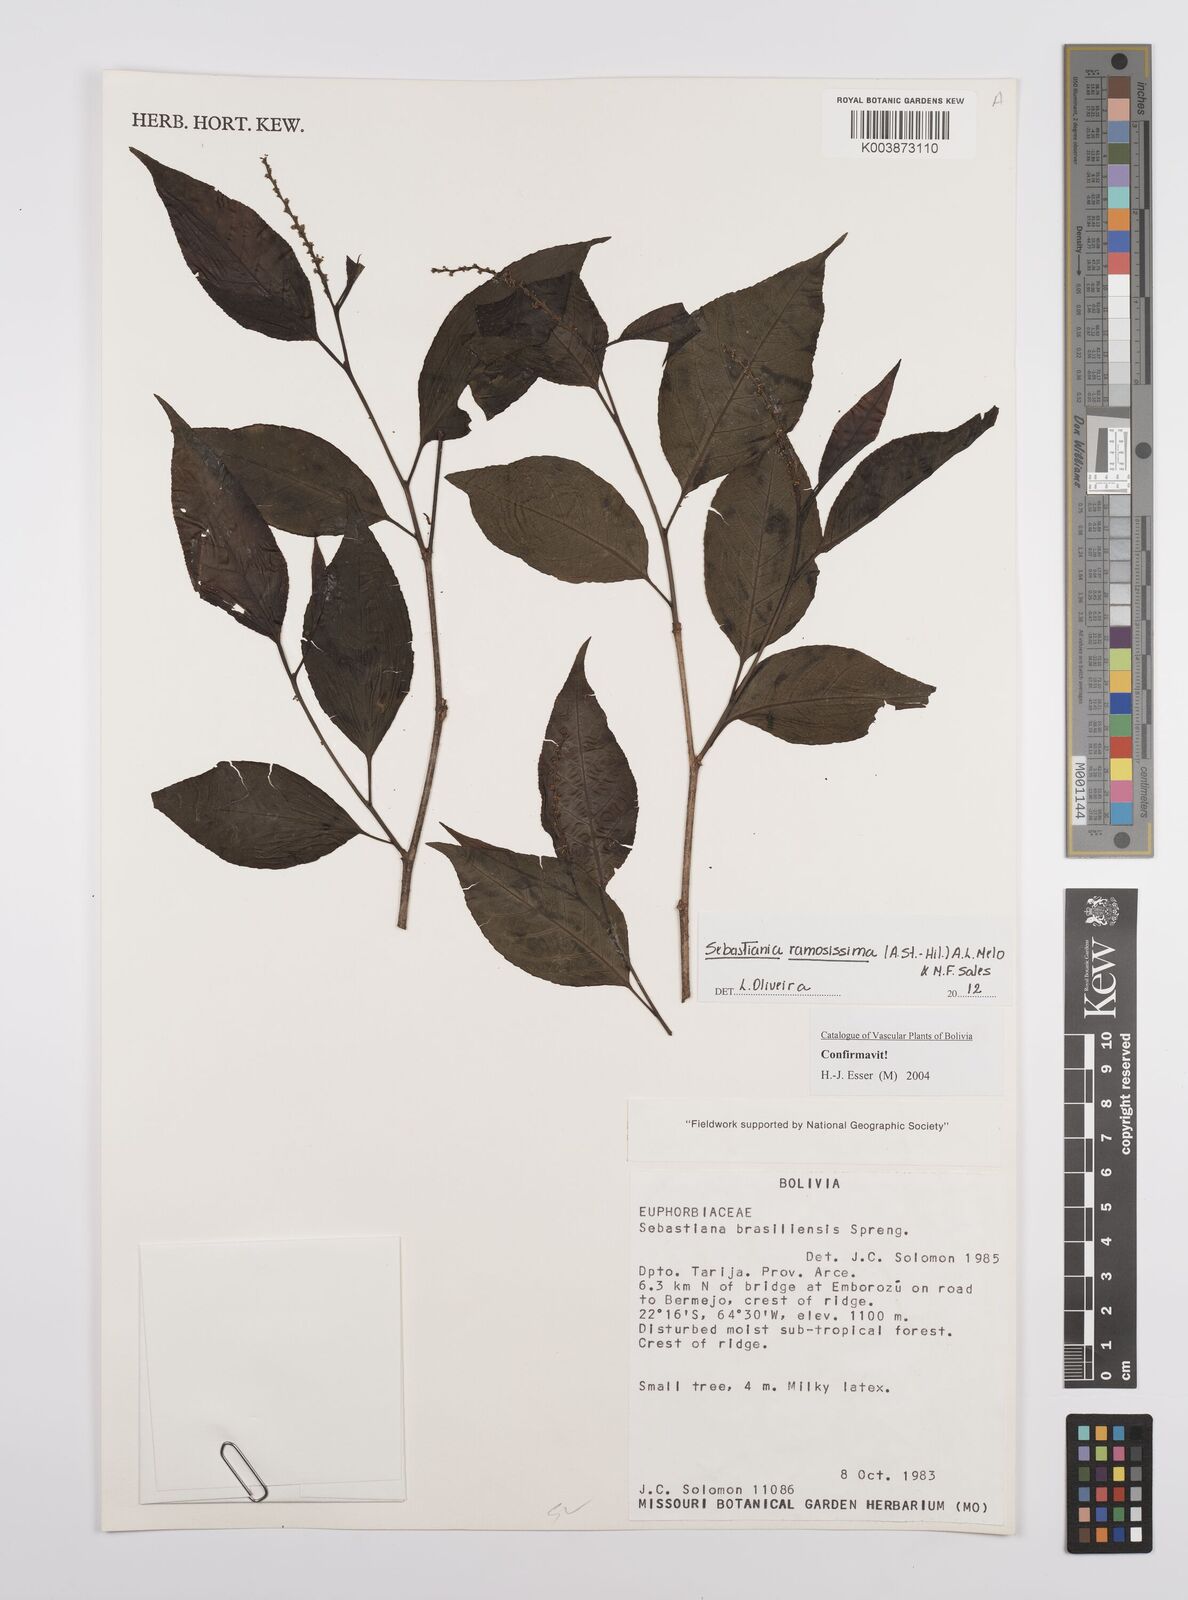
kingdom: Plantae
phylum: Tracheophyta
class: Magnoliopsida
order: Malpighiales
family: Euphorbiaceae
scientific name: Euphorbiaceae
